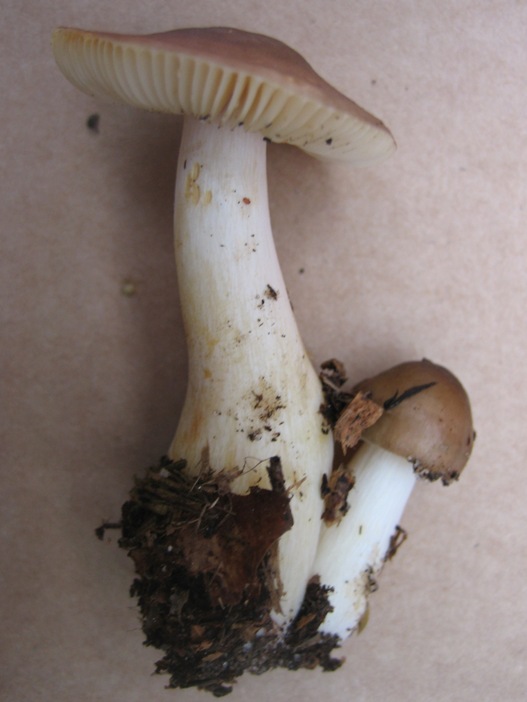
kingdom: Fungi
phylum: Basidiomycota
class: Agaricomycetes
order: Russulales
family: Russulaceae
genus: Russula
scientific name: Russula puellaris
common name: gulstokket skørhat
